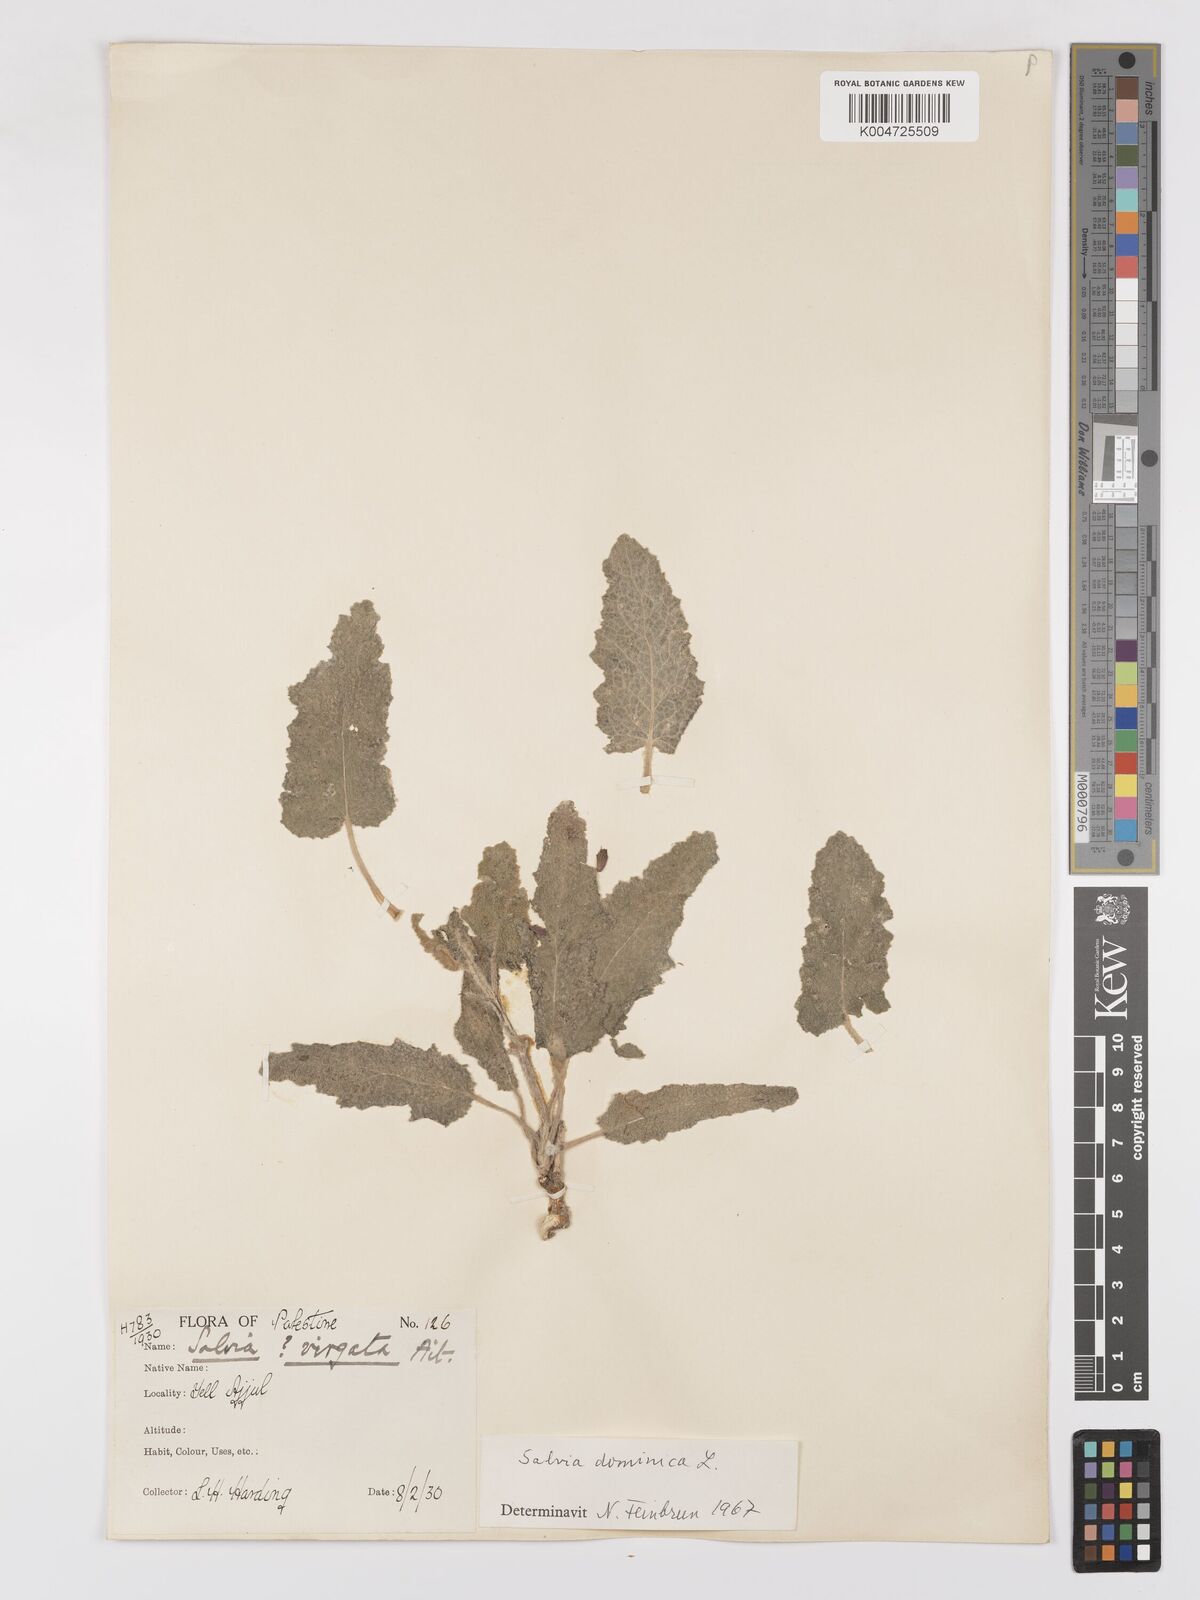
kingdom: Plantae
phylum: Tracheophyta
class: Magnoliopsida
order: Lamiales
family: Lamiaceae
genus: Salvia
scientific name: Salvia
